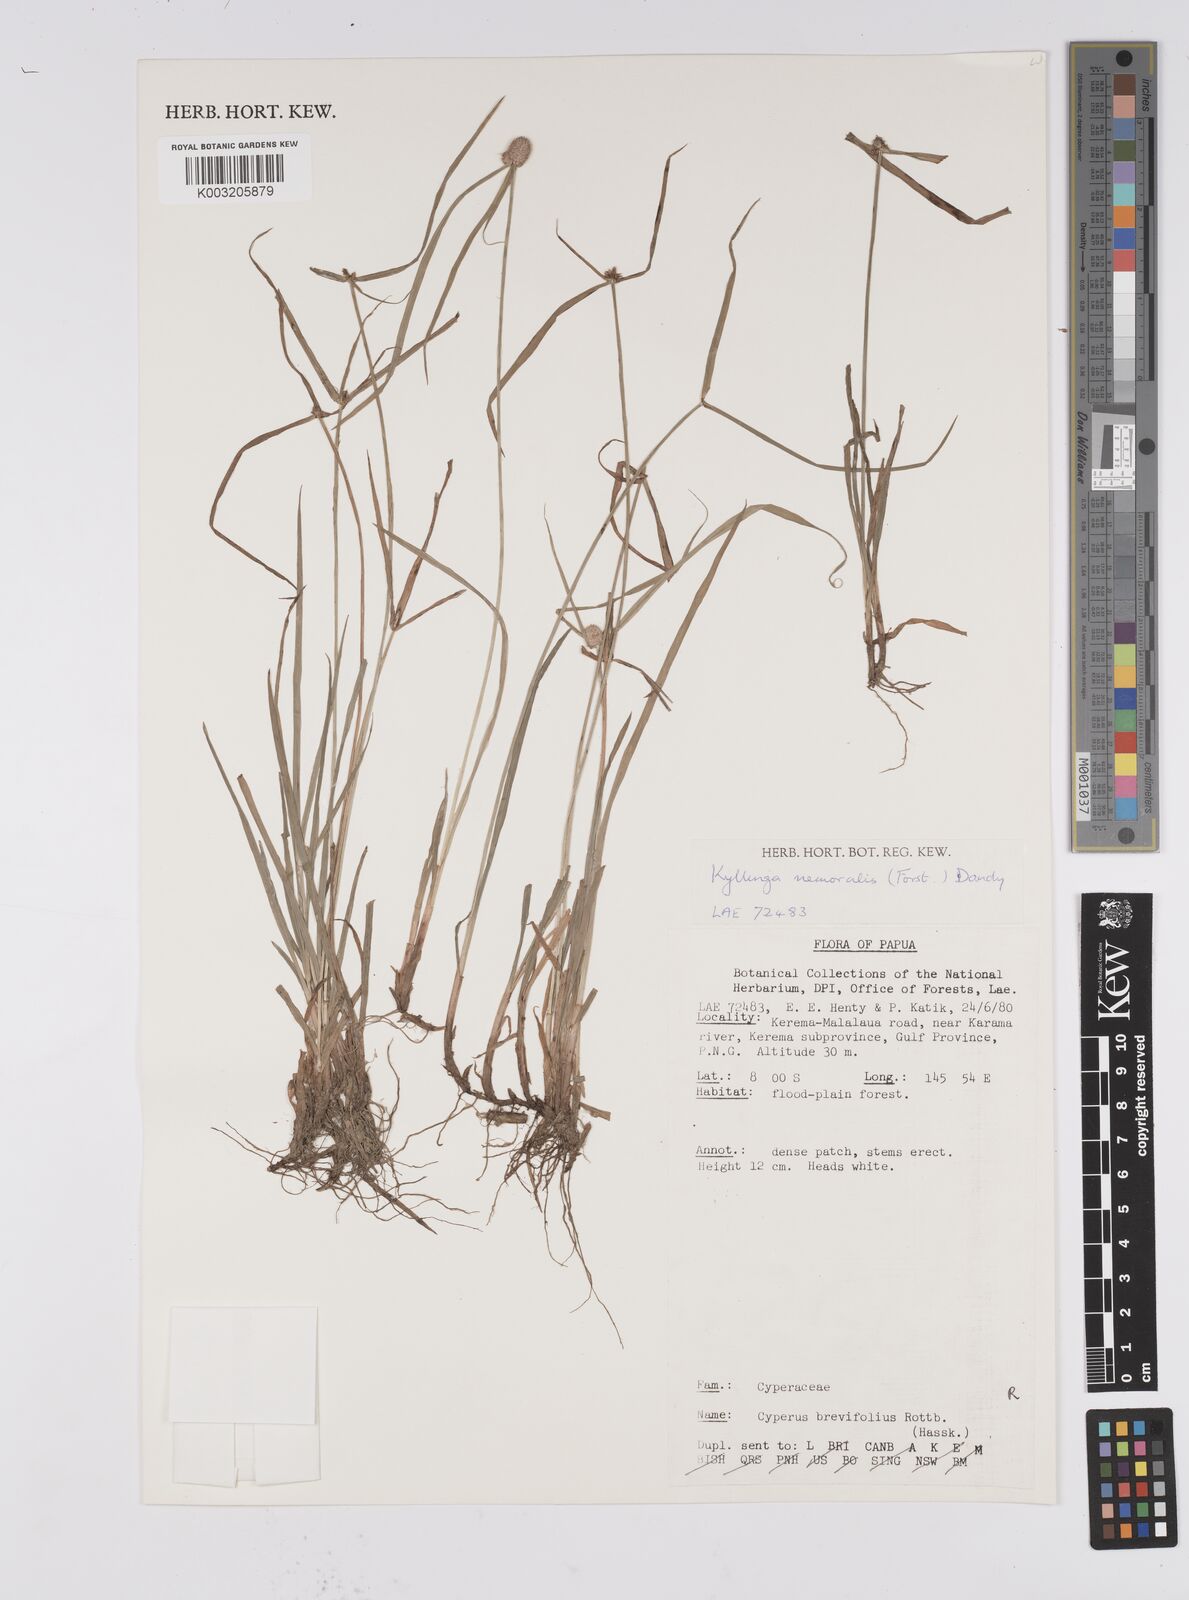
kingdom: Plantae
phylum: Tracheophyta
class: Liliopsida
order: Poales
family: Cyperaceae
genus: Cyperus
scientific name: Cyperus nemoralis
